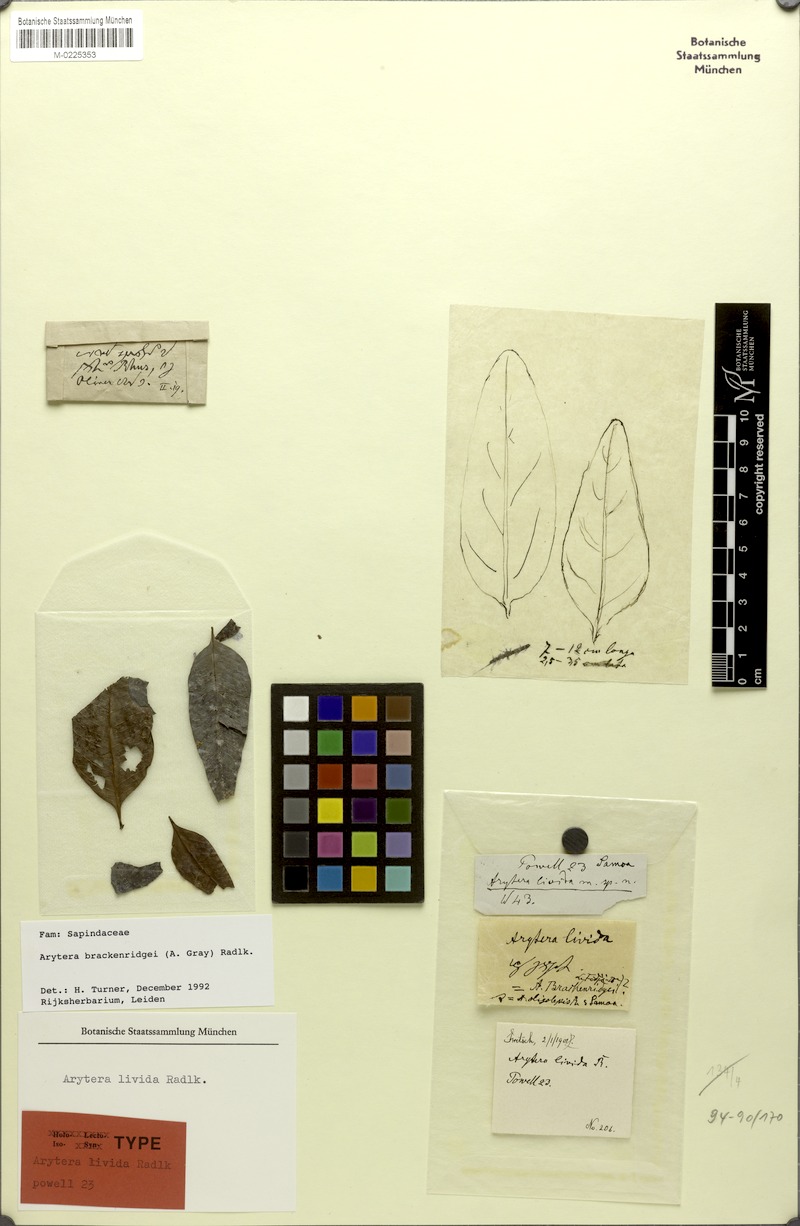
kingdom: Plantae
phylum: Tracheophyta
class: Magnoliopsida
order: Sapindales
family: Sapindaceae
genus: Lepidocupania
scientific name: Lepidocupania brackenridgei
